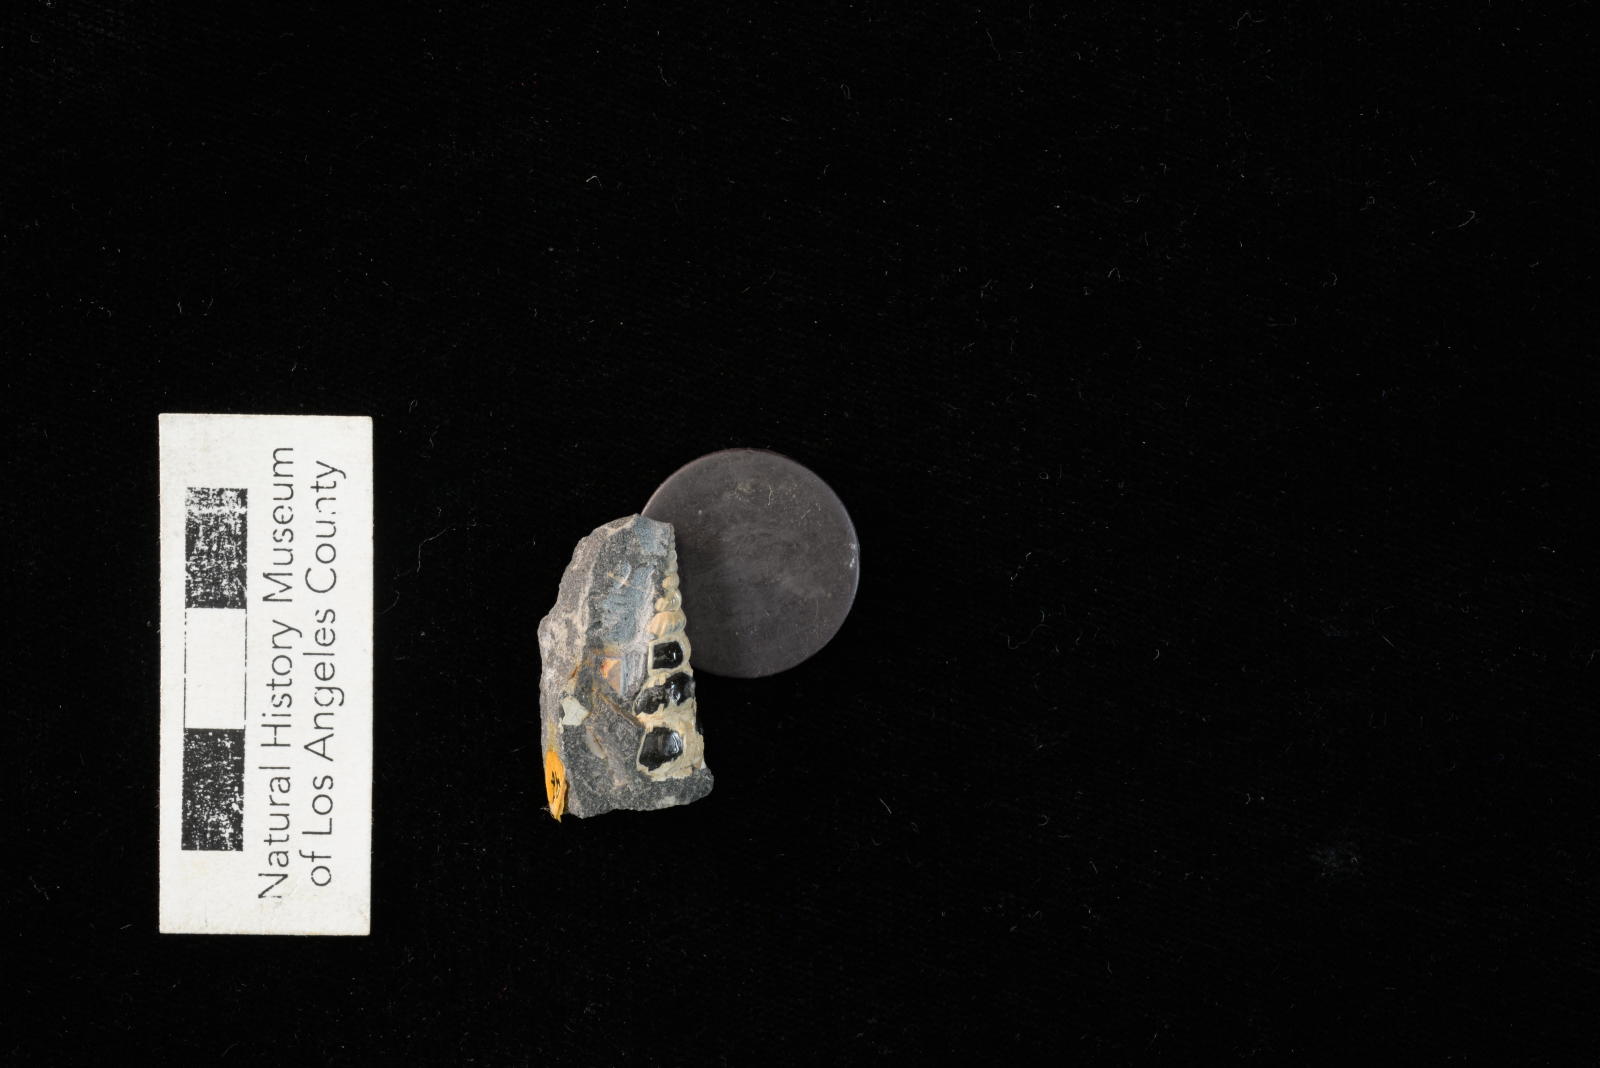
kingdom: Animalia
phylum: Mollusca
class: Gastropoda
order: Littorinimorpha
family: Aporrhaidae
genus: Helicaulax
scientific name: Helicaulax Anchura tricosa
